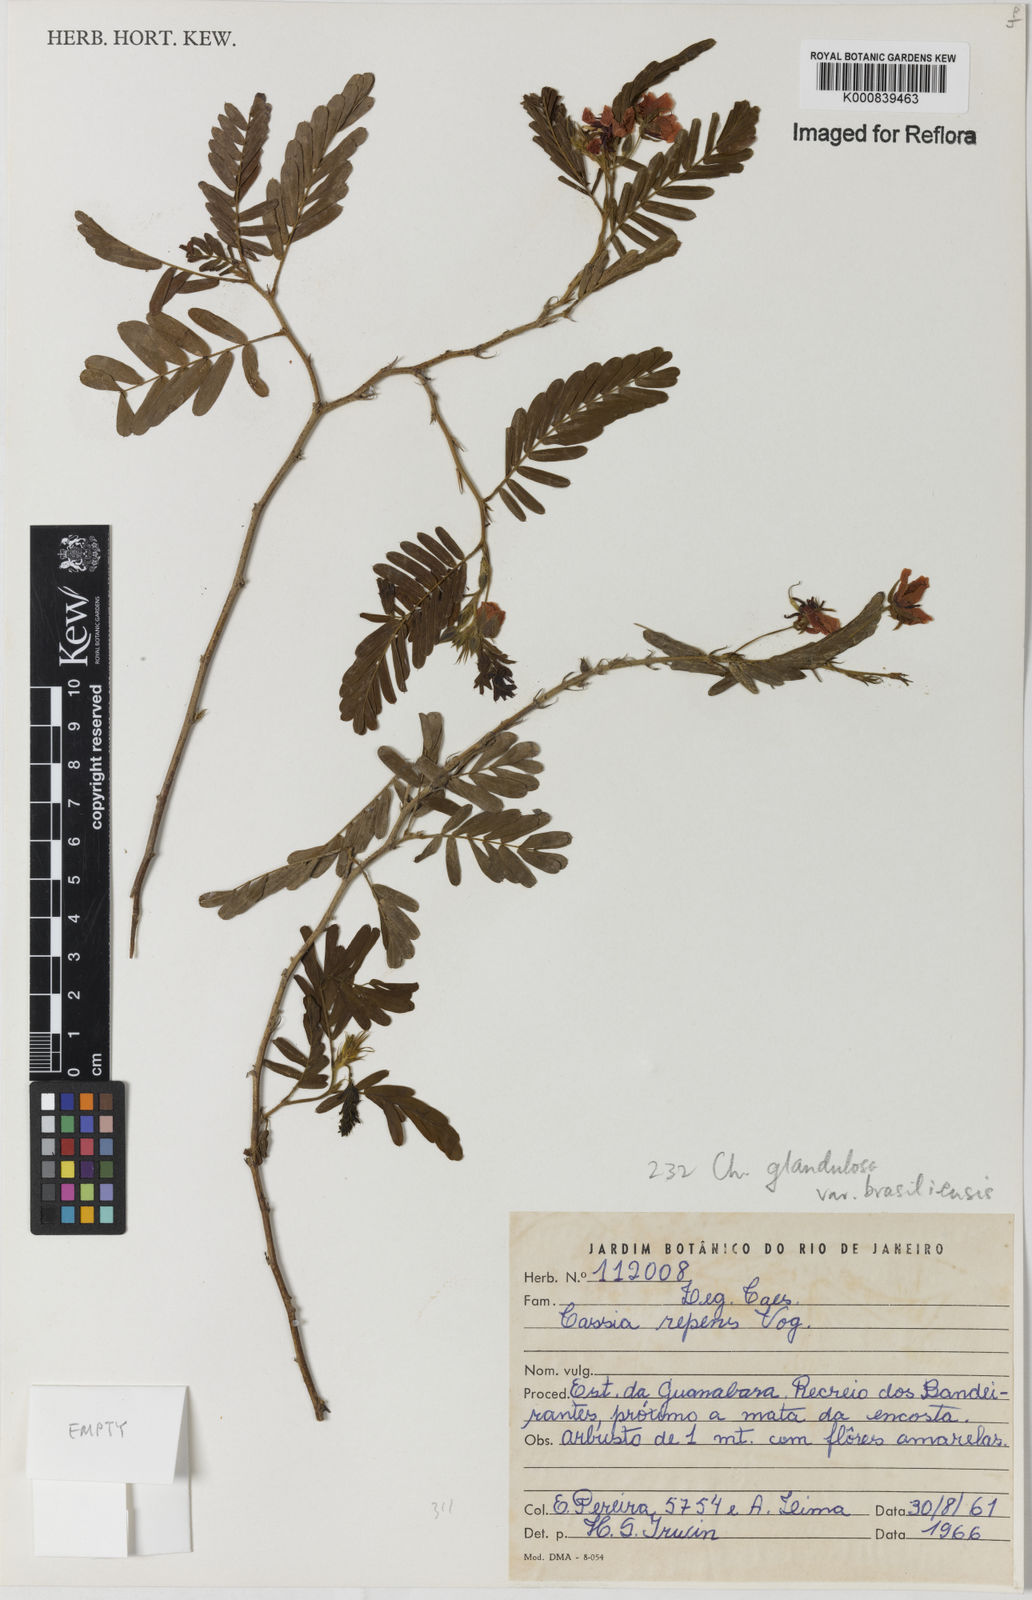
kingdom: Plantae
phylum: Tracheophyta
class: Magnoliopsida
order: Fabales
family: Fabaceae
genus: Chamaecrista
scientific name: Chamaecrista glandulosa
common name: Wild peas
